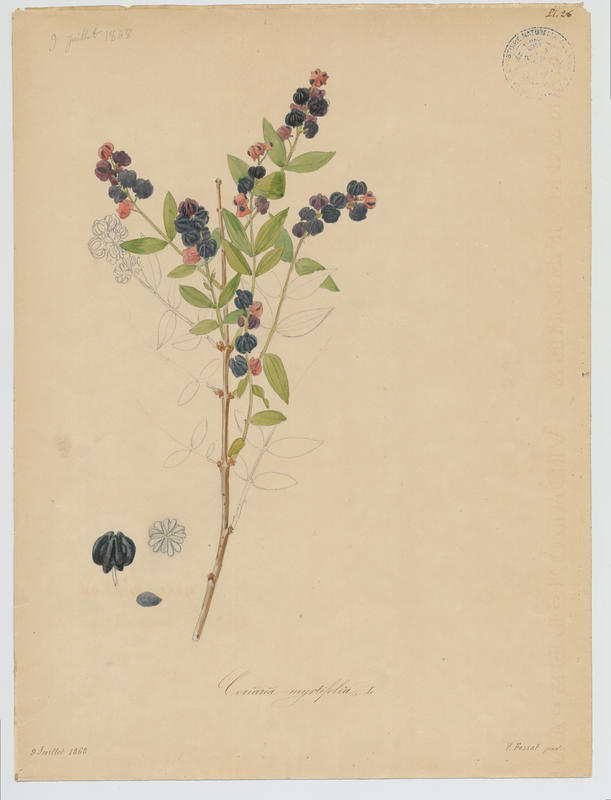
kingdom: Plantae
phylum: Tracheophyta
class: Magnoliopsida
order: Cucurbitales
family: Coriariaceae
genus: Coriaria
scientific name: Coriaria myrtifolia
